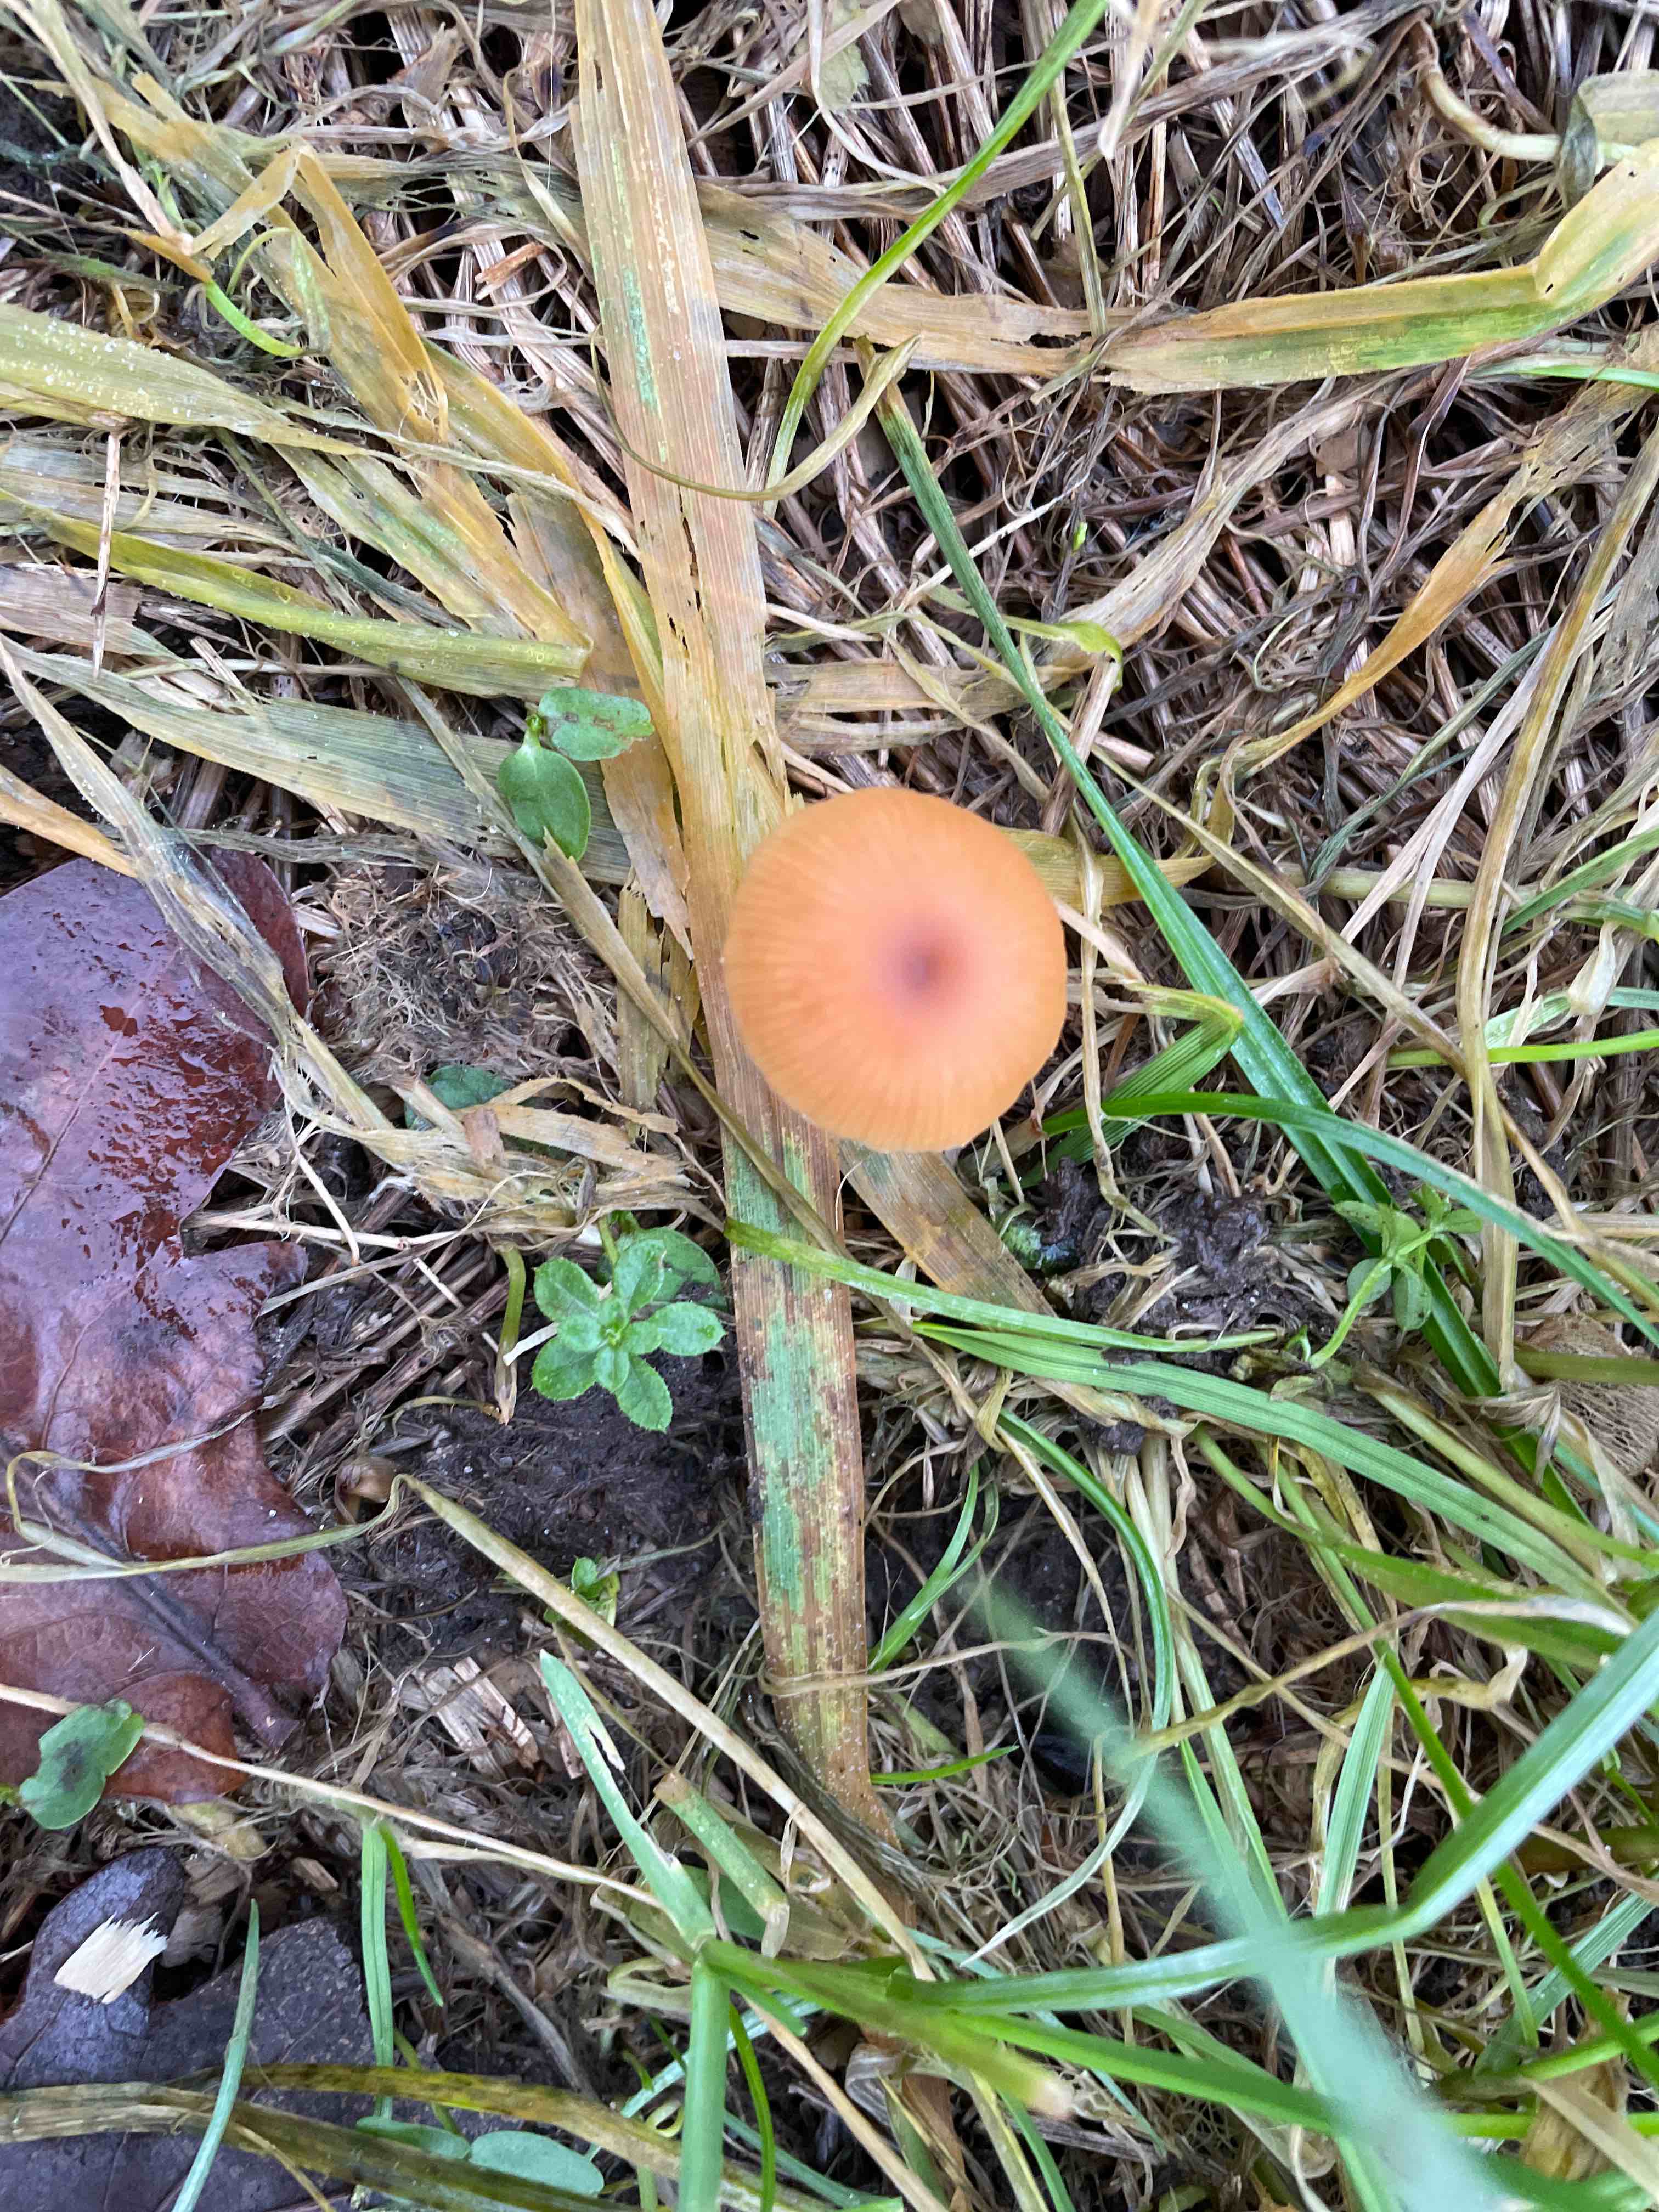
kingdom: Fungi
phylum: Basidiomycota
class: Agaricomycetes
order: Agaricales
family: Tubariaceae
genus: Tubaria
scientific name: Tubaria furfuracea
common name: kliddet fnughat
